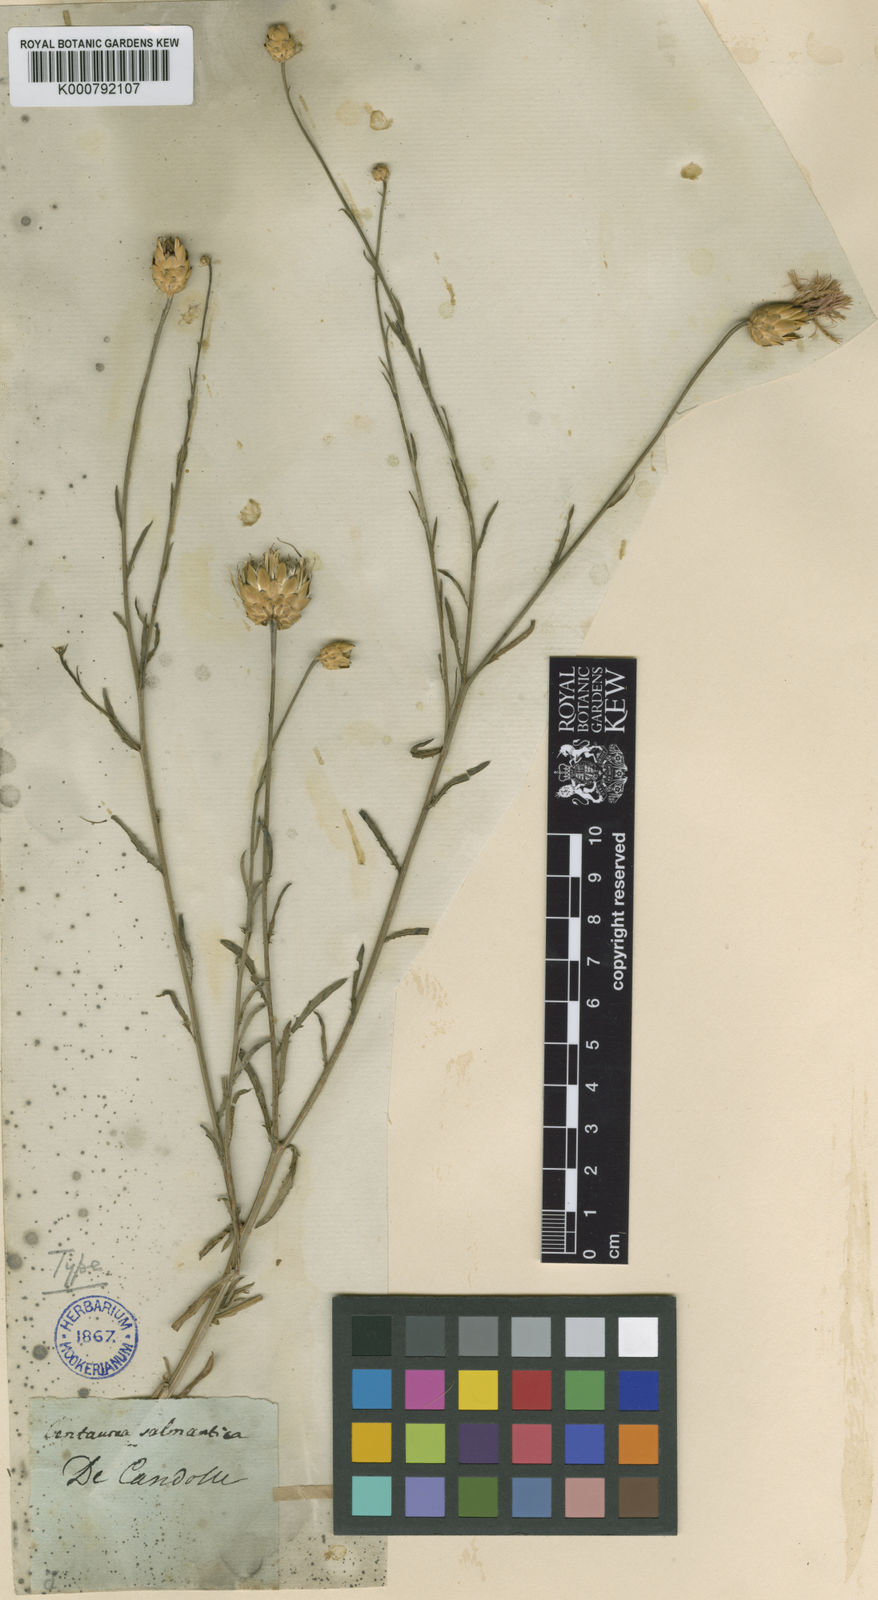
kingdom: Plantae
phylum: Tracheophyta
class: Magnoliopsida
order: Asterales
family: Asteraceae
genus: Mantisalca
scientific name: Mantisalca salmantica
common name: Dagger flower
